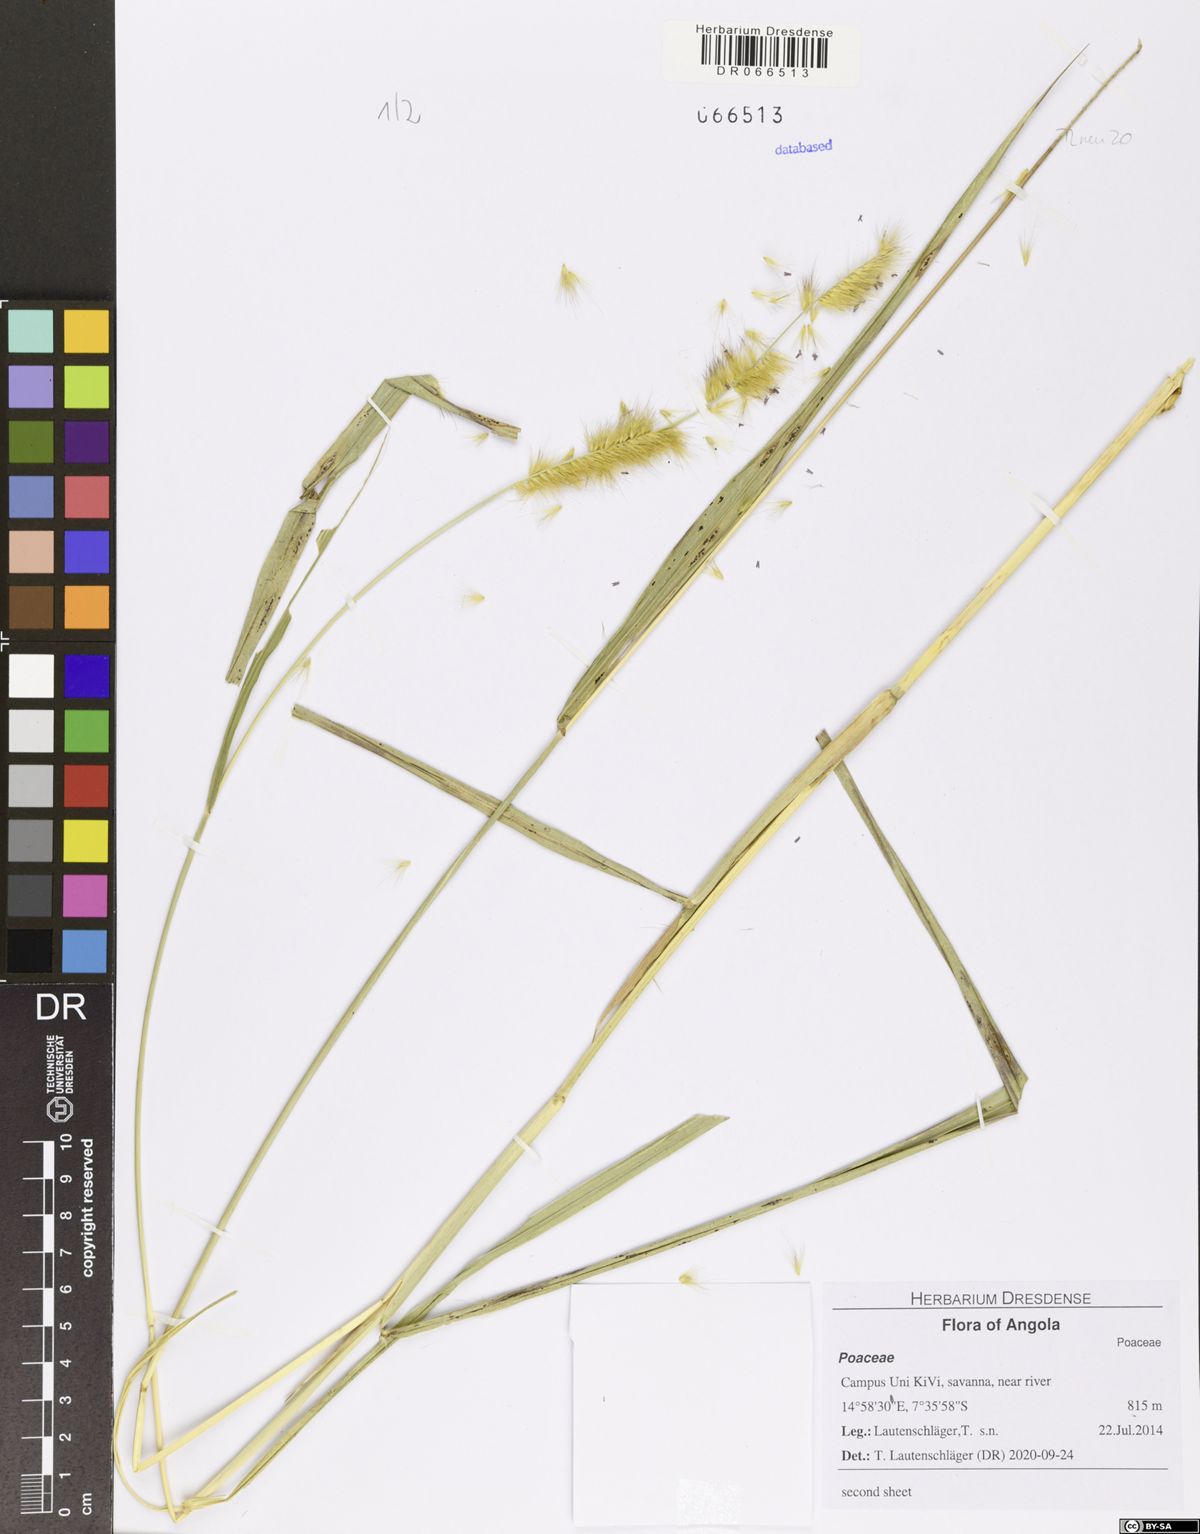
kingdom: Plantae
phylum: Tracheophyta
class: Liliopsida
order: Poales
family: Poaceae
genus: Cenchrus
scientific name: Cenchrus purpureus
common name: Elephant grass
